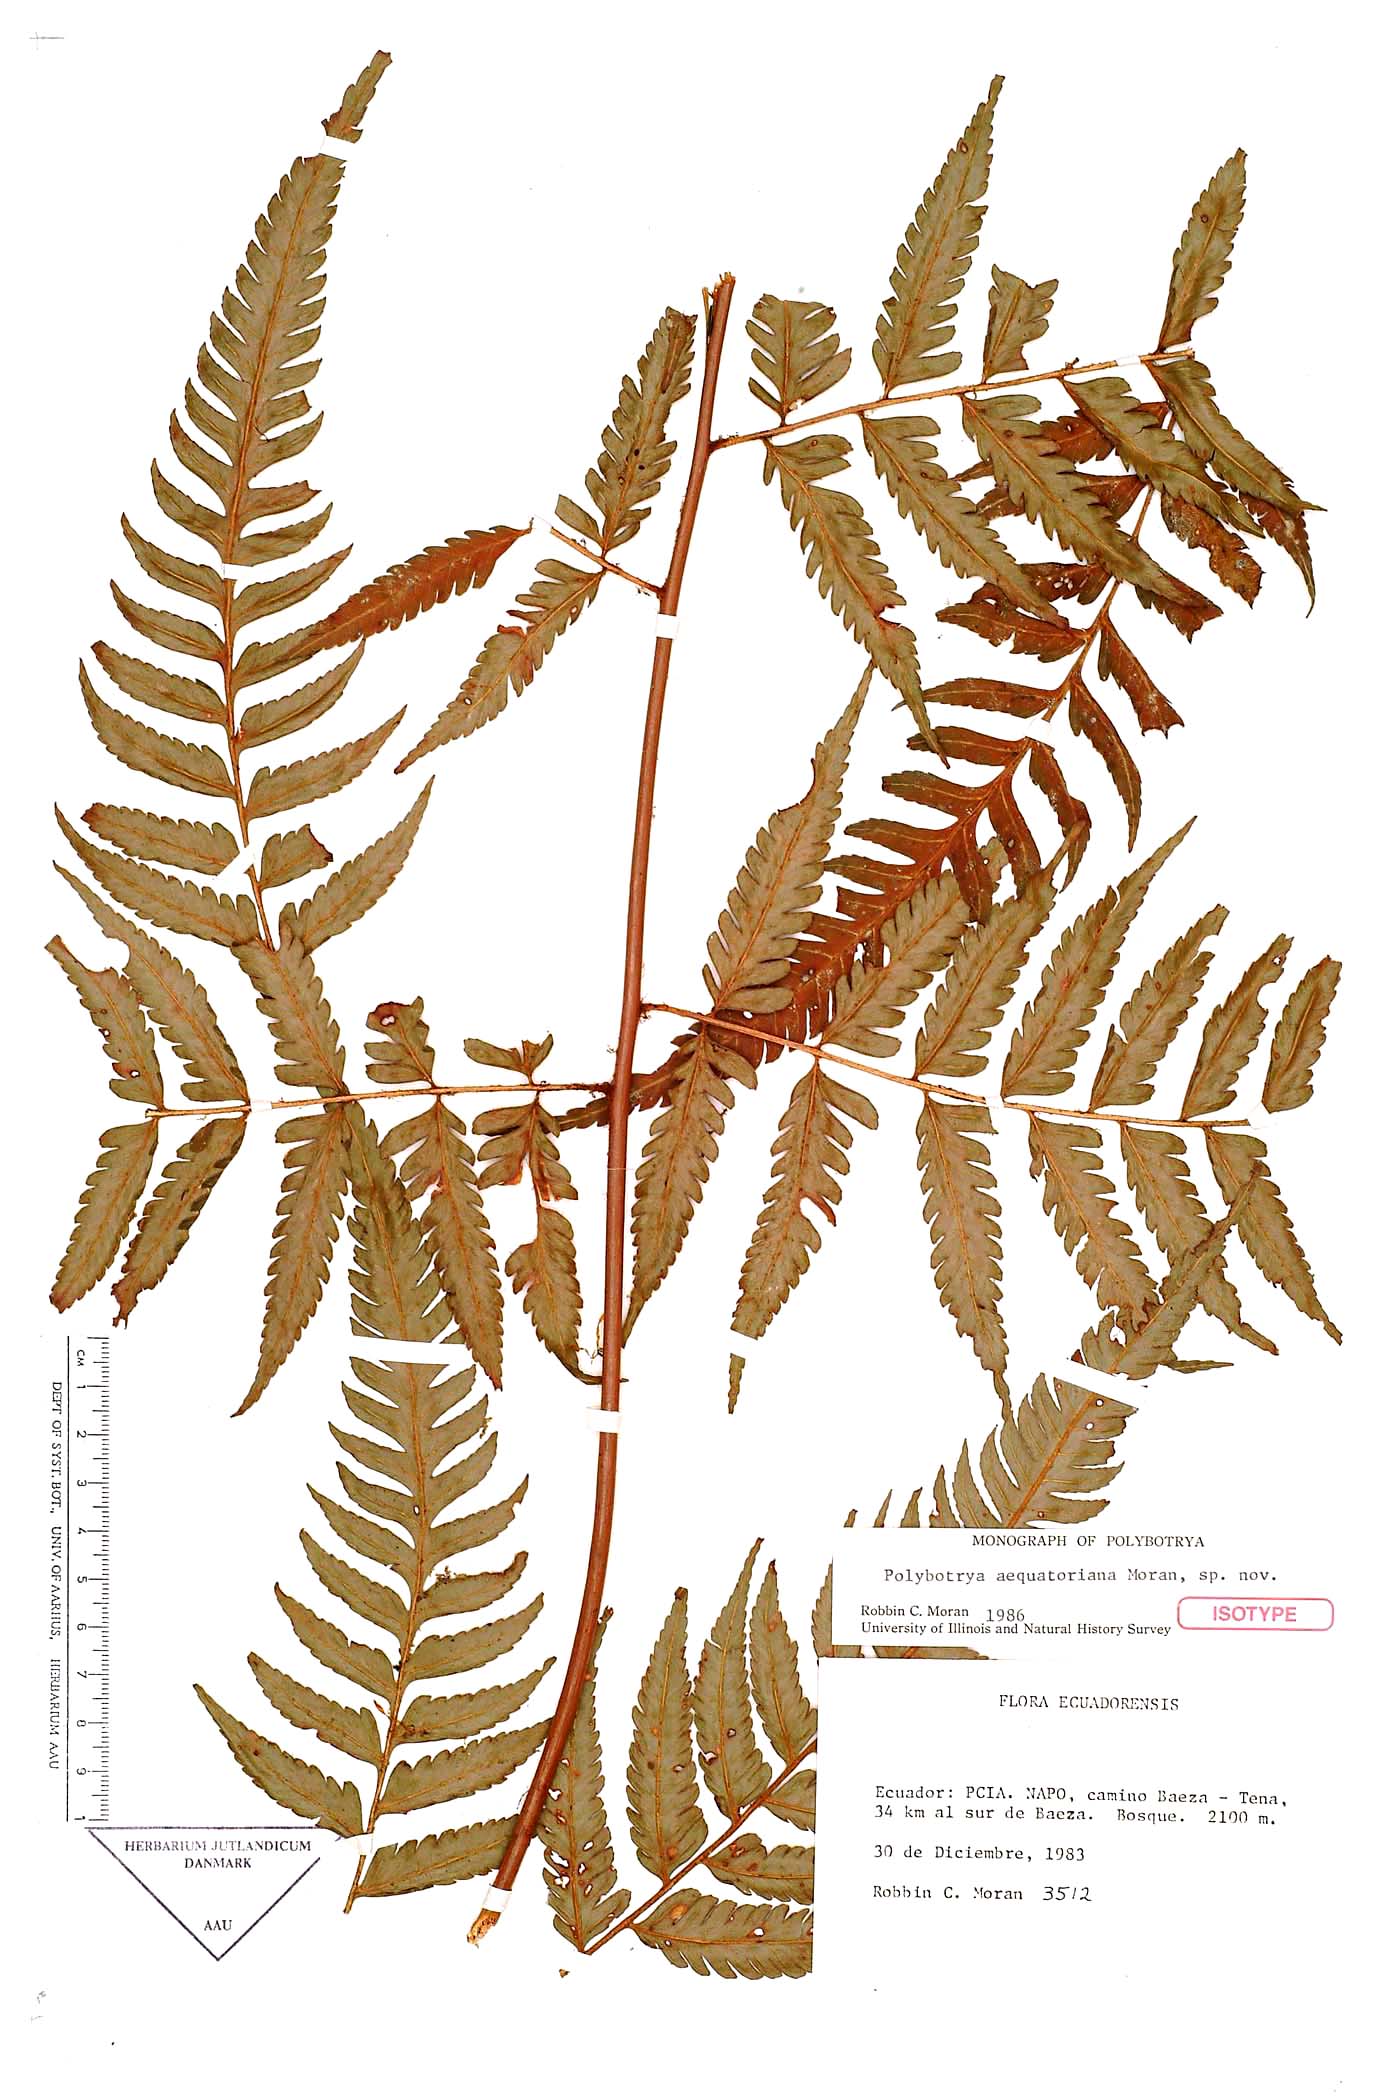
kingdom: Plantae
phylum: Tracheophyta
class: Polypodiopsida
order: Polypodiales
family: Dryopteridaceae
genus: Polybotrya
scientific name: Polybotrya aequatoriana
